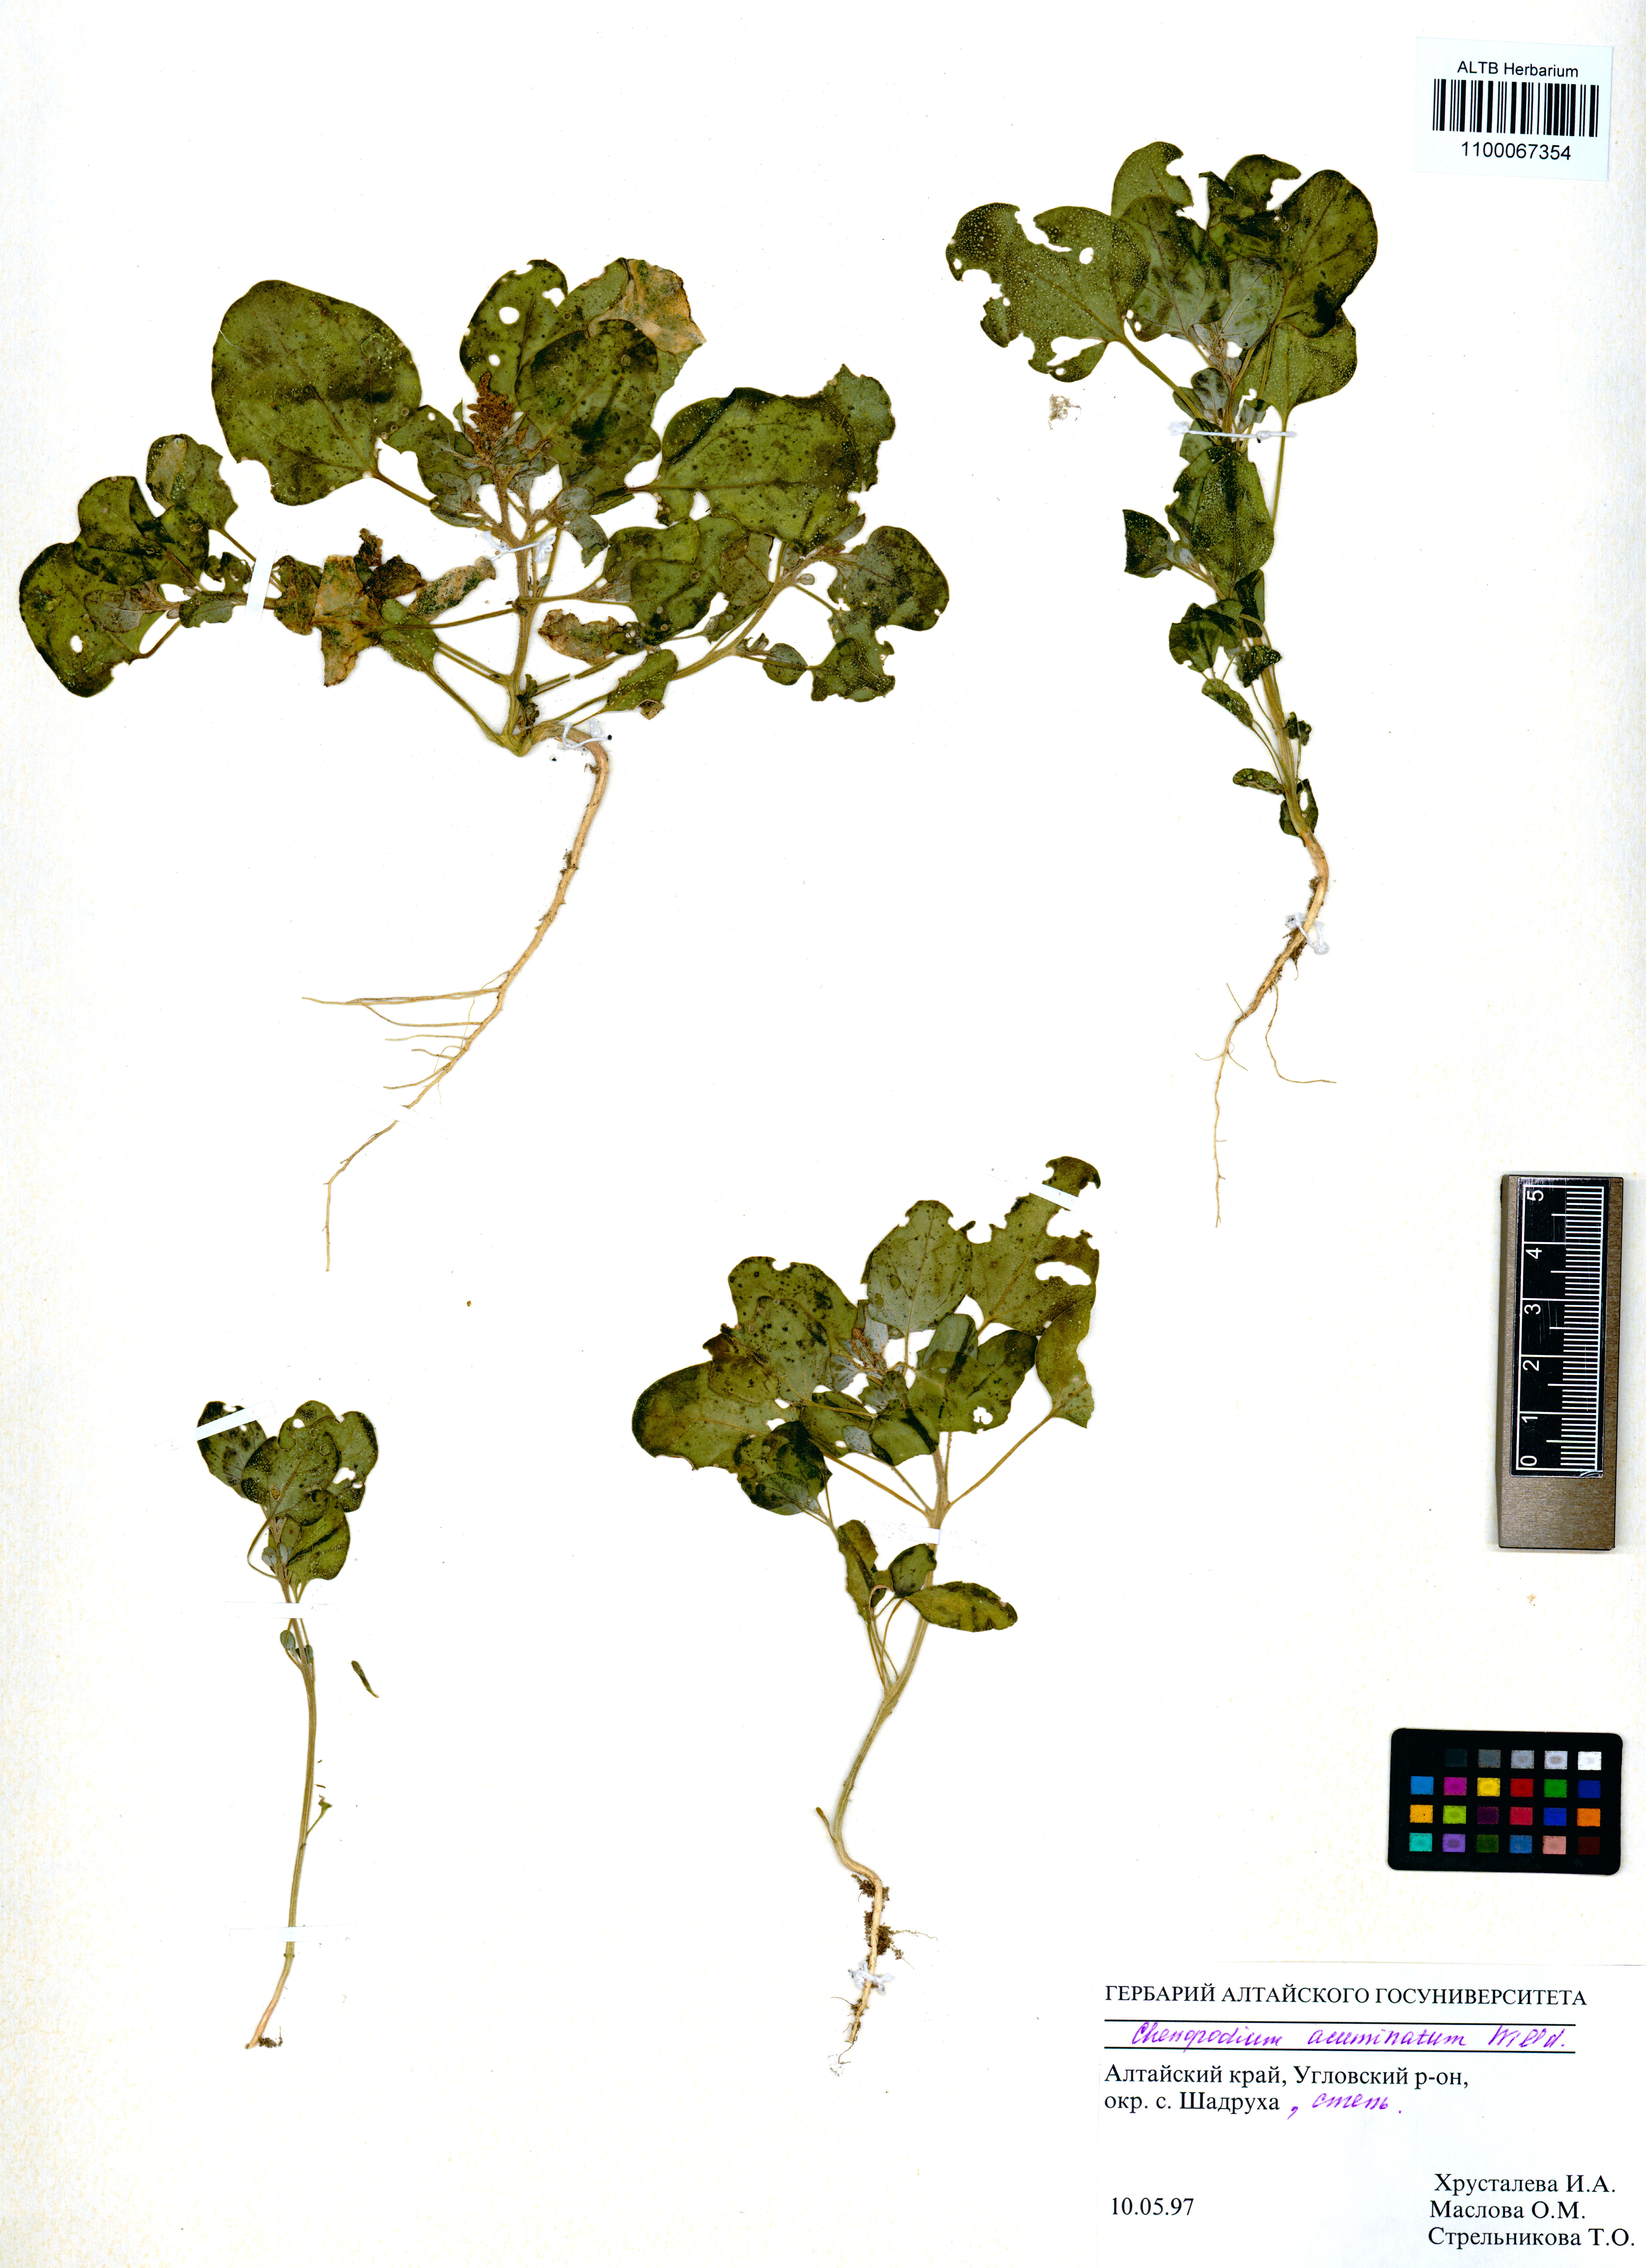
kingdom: Plantae
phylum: Tracheophyta
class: Magnoliopsida
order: Caryophyllales
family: Amaranthaceae
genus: Chenopodium
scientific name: Chenopodium acuminatum
